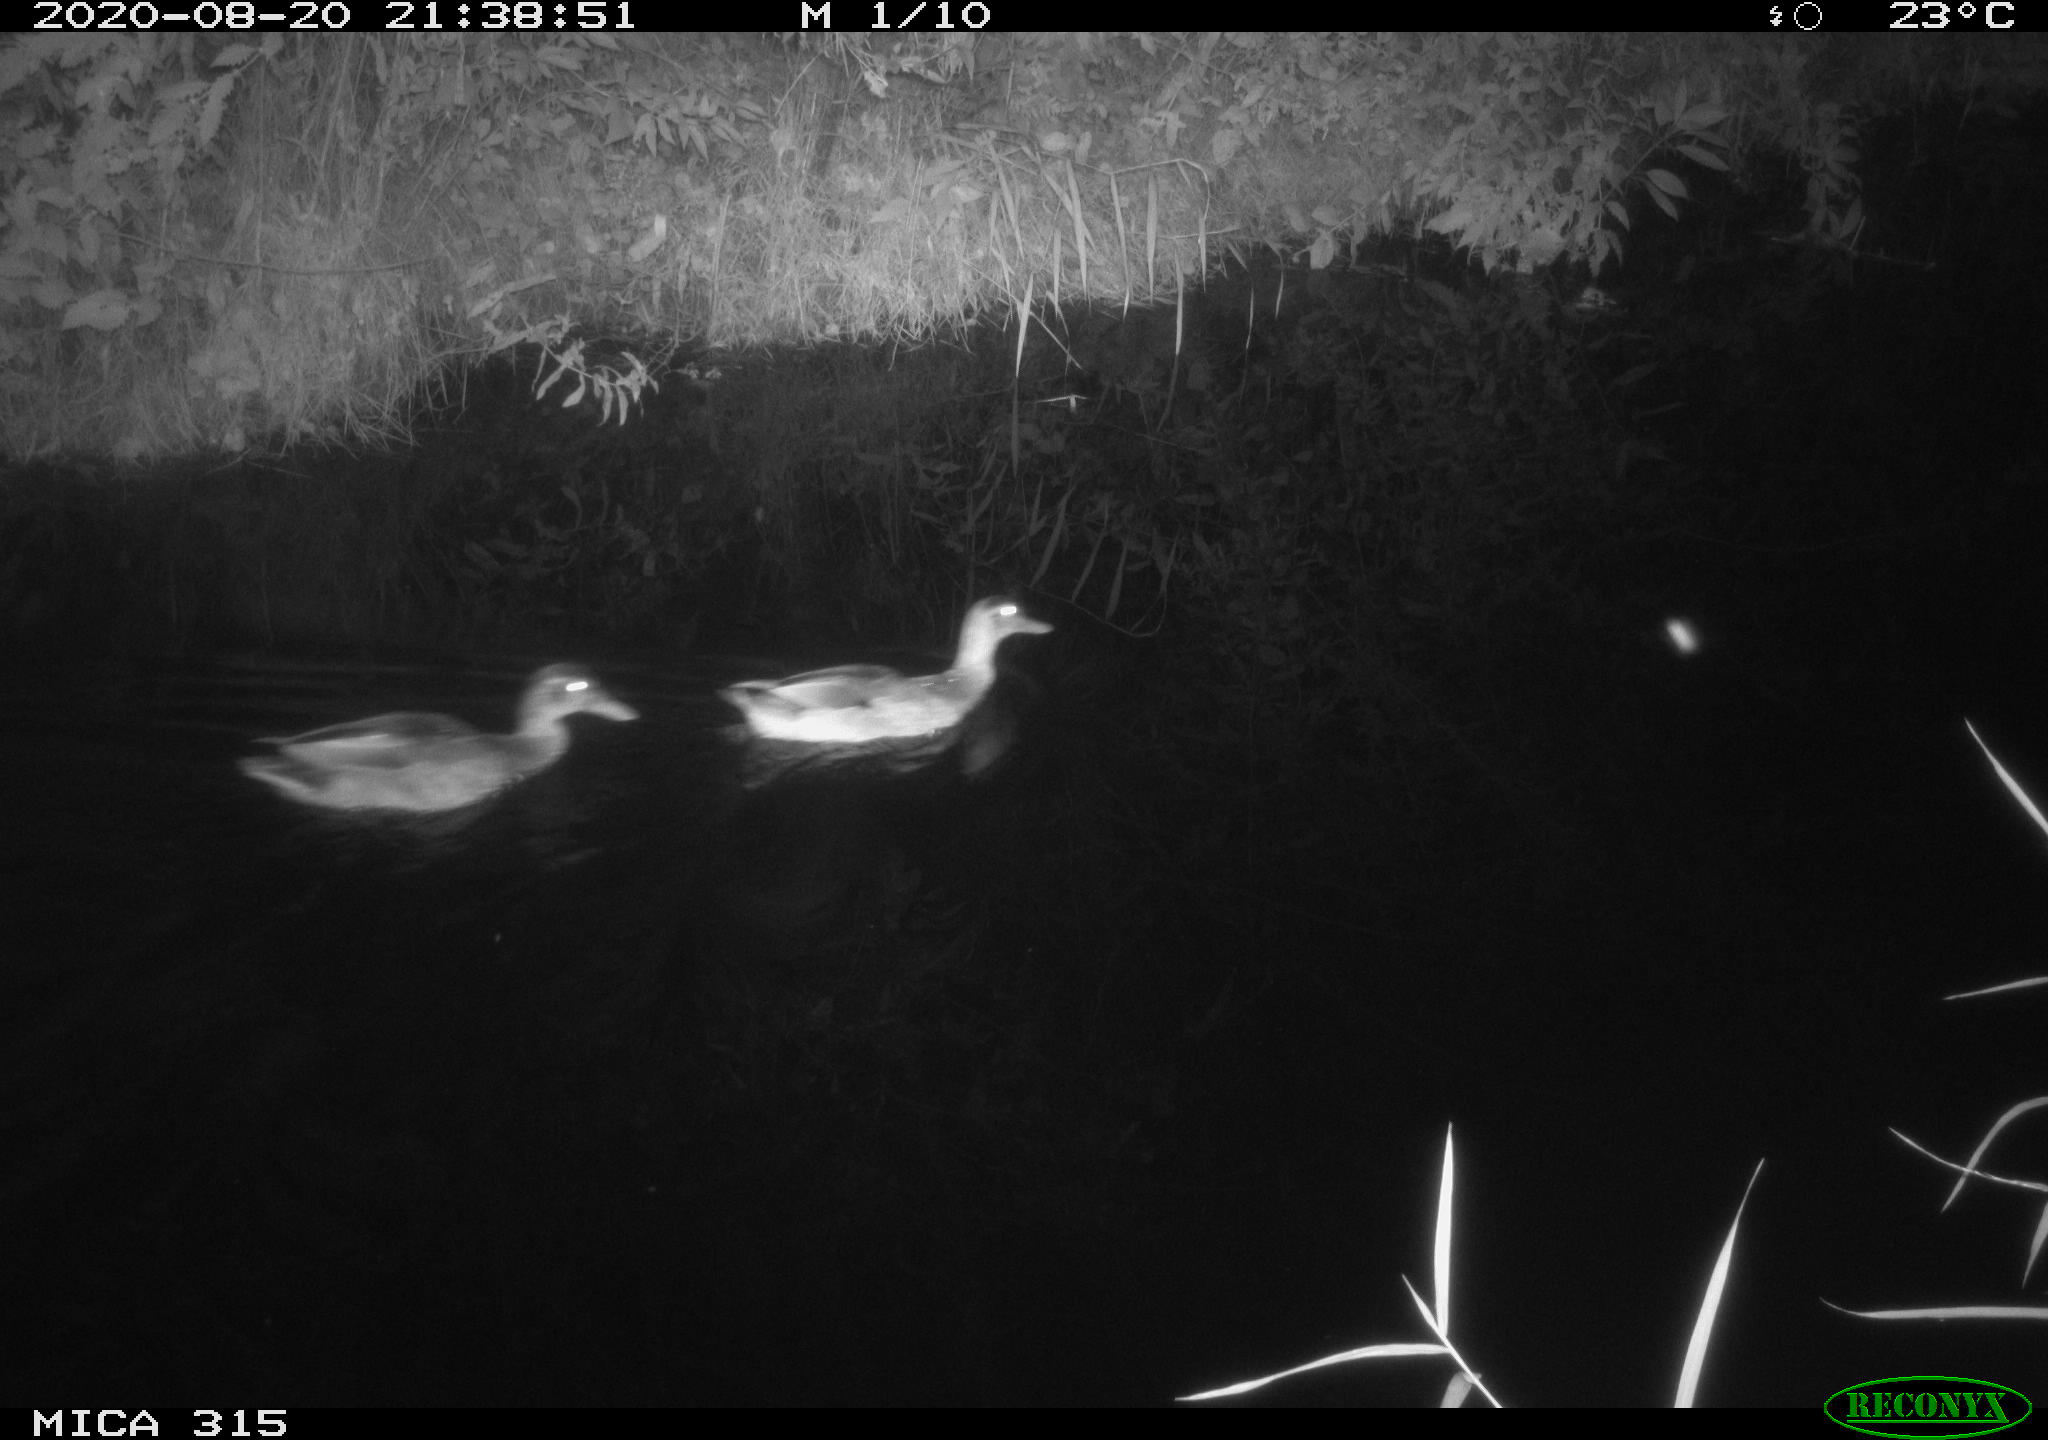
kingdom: Animalia
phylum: Chordata
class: Aves
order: Anseriformes
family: Anatidae
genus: Anas
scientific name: Anas platyrhynchos
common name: Mallard
